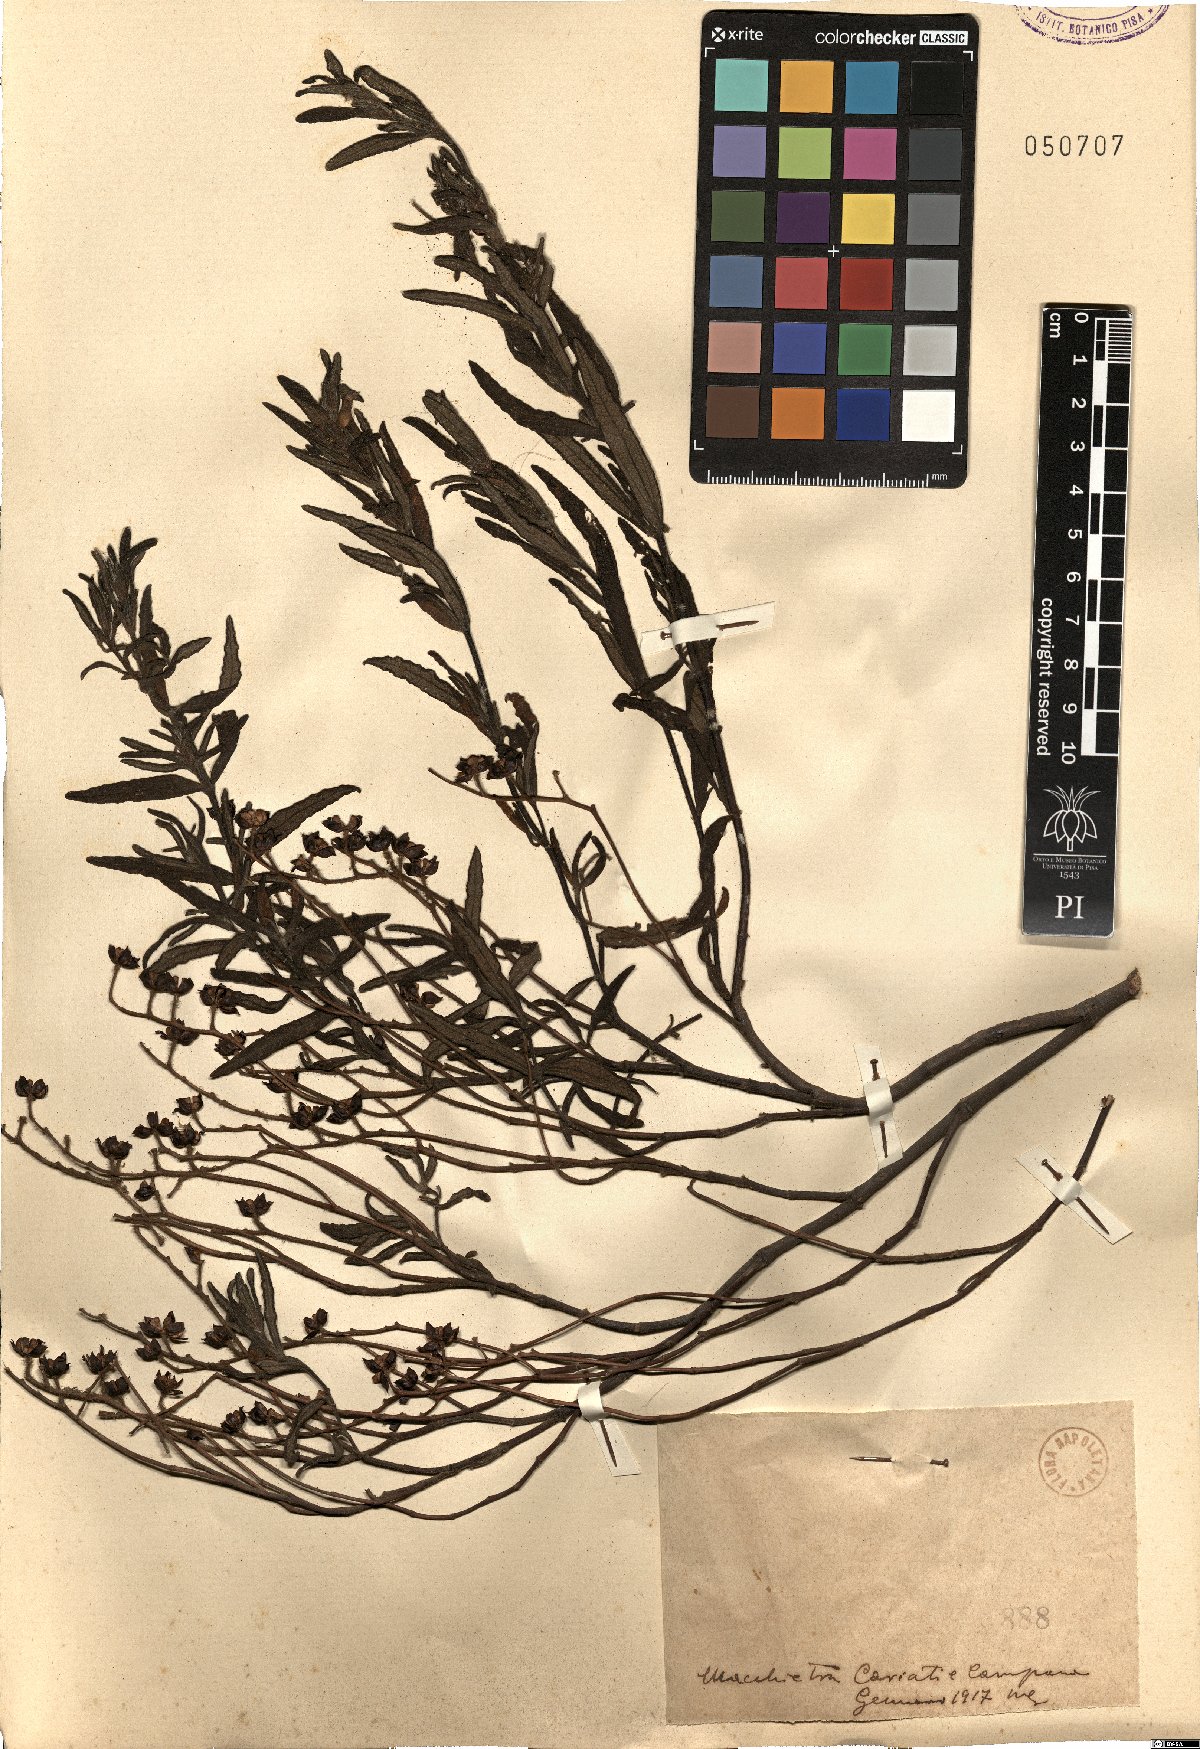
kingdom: Plantae
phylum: Tracheophyta
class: Magnoliopsida
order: Malvales
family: Cistaceae
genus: Cistus
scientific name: Cistus
